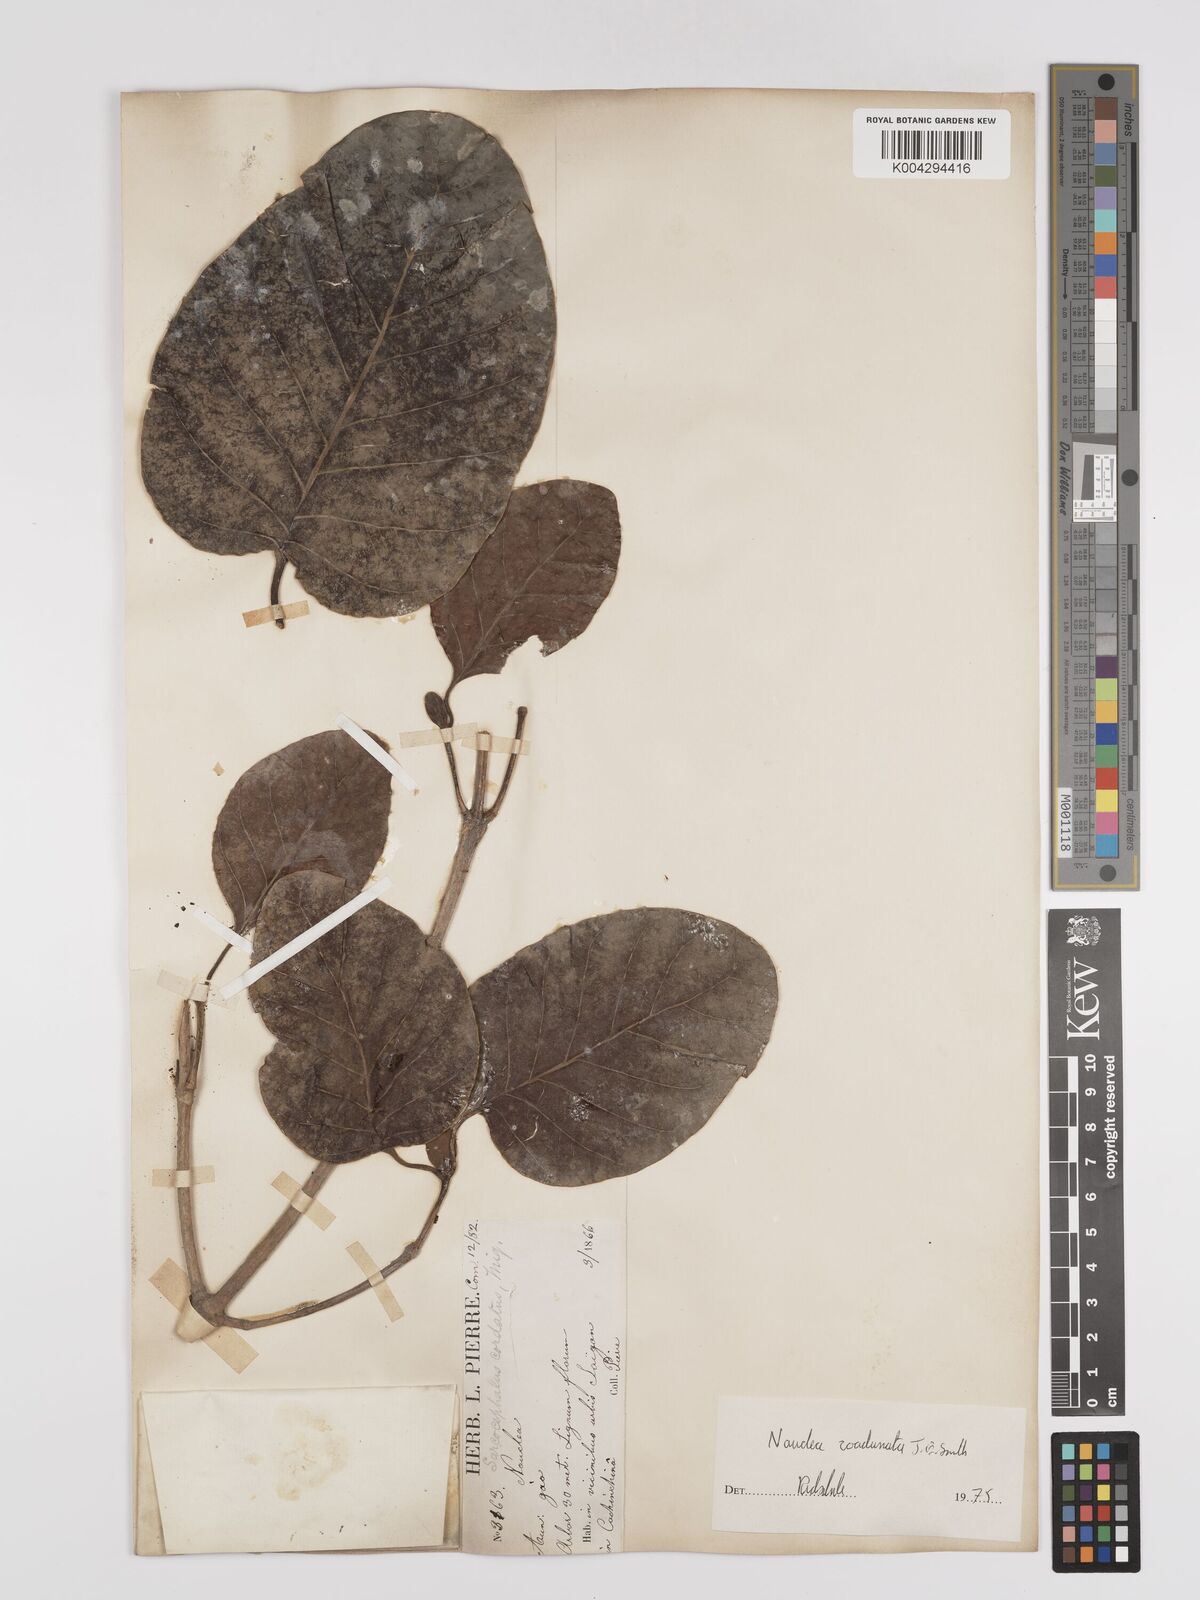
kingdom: Plantae
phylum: Tracheophyta
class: Magnoliopsida
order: Gentianales
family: Rubiaceae
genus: Nauclea
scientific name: Nauclea orientalis
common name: Leichhardt-pine
